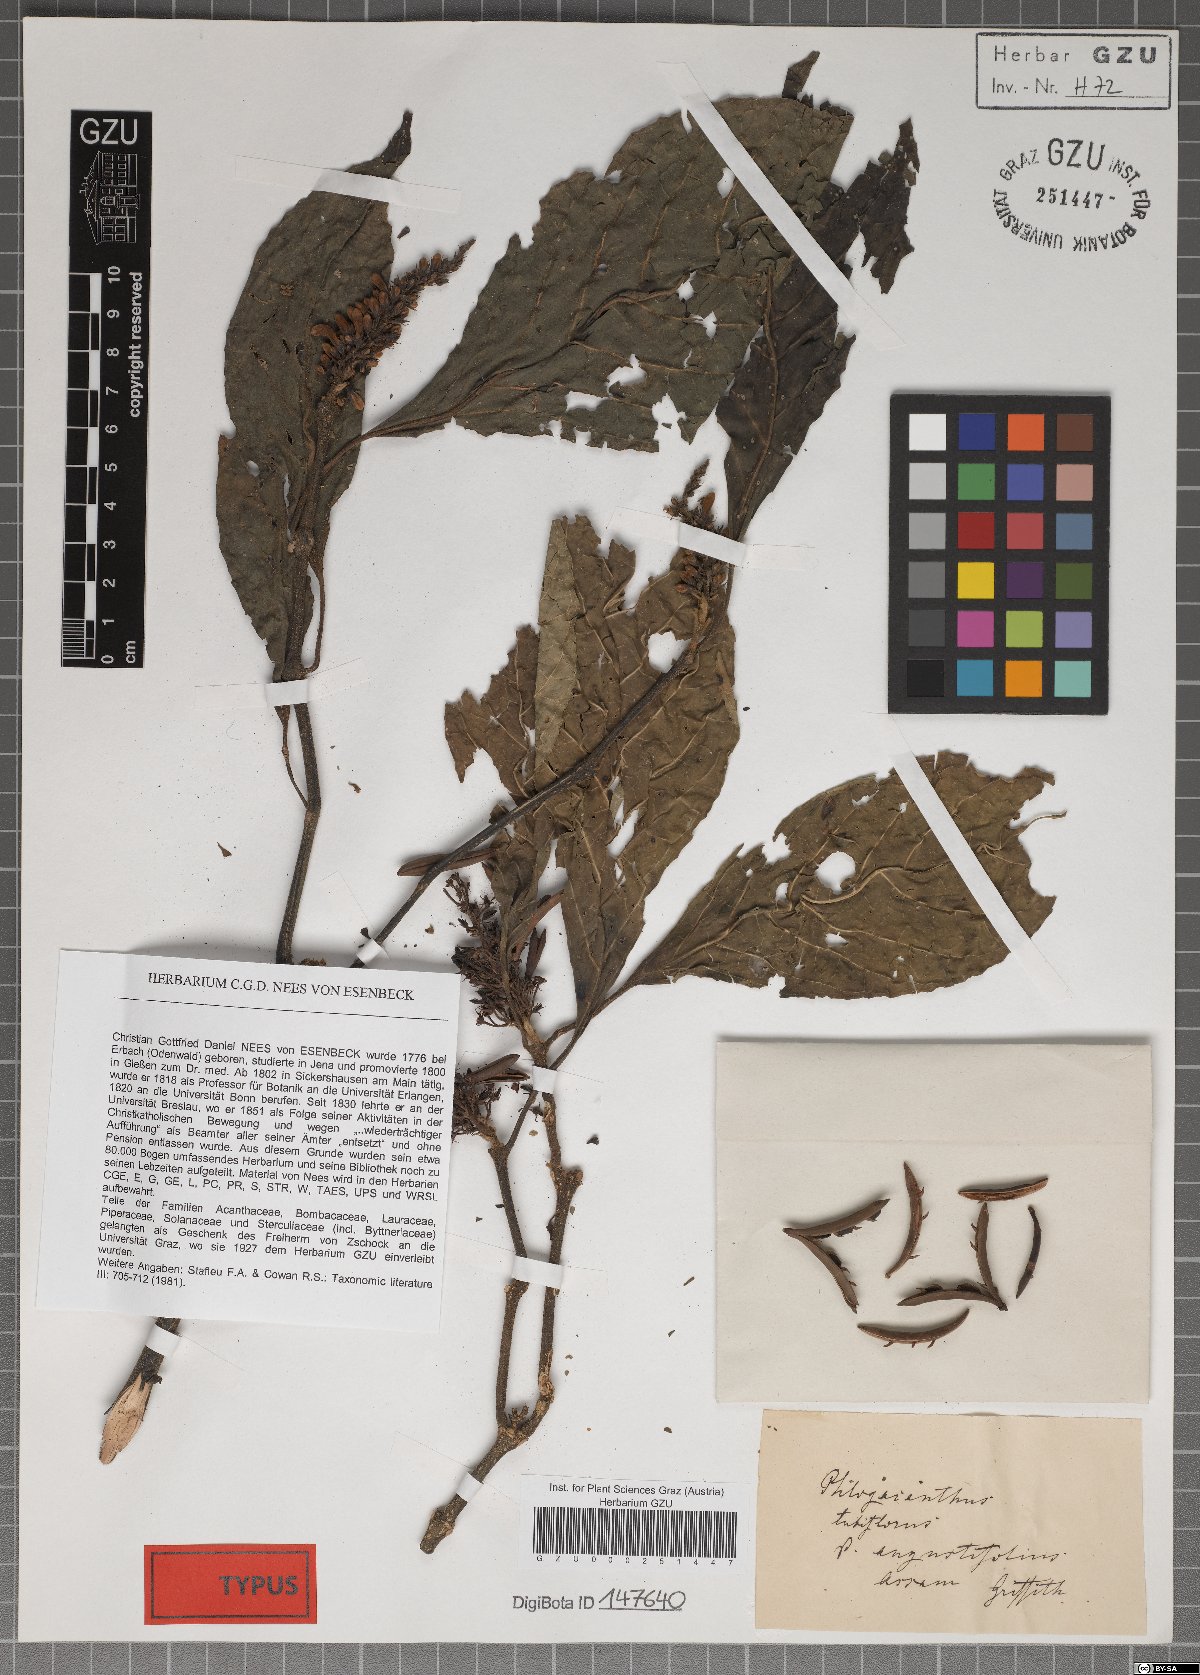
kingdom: Plantae
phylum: Tracheophyta
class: Magnoliopsida
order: Lamiales
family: Acanthaceae
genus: Phlogacanthus
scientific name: Phlogacanthus tubiflorus
